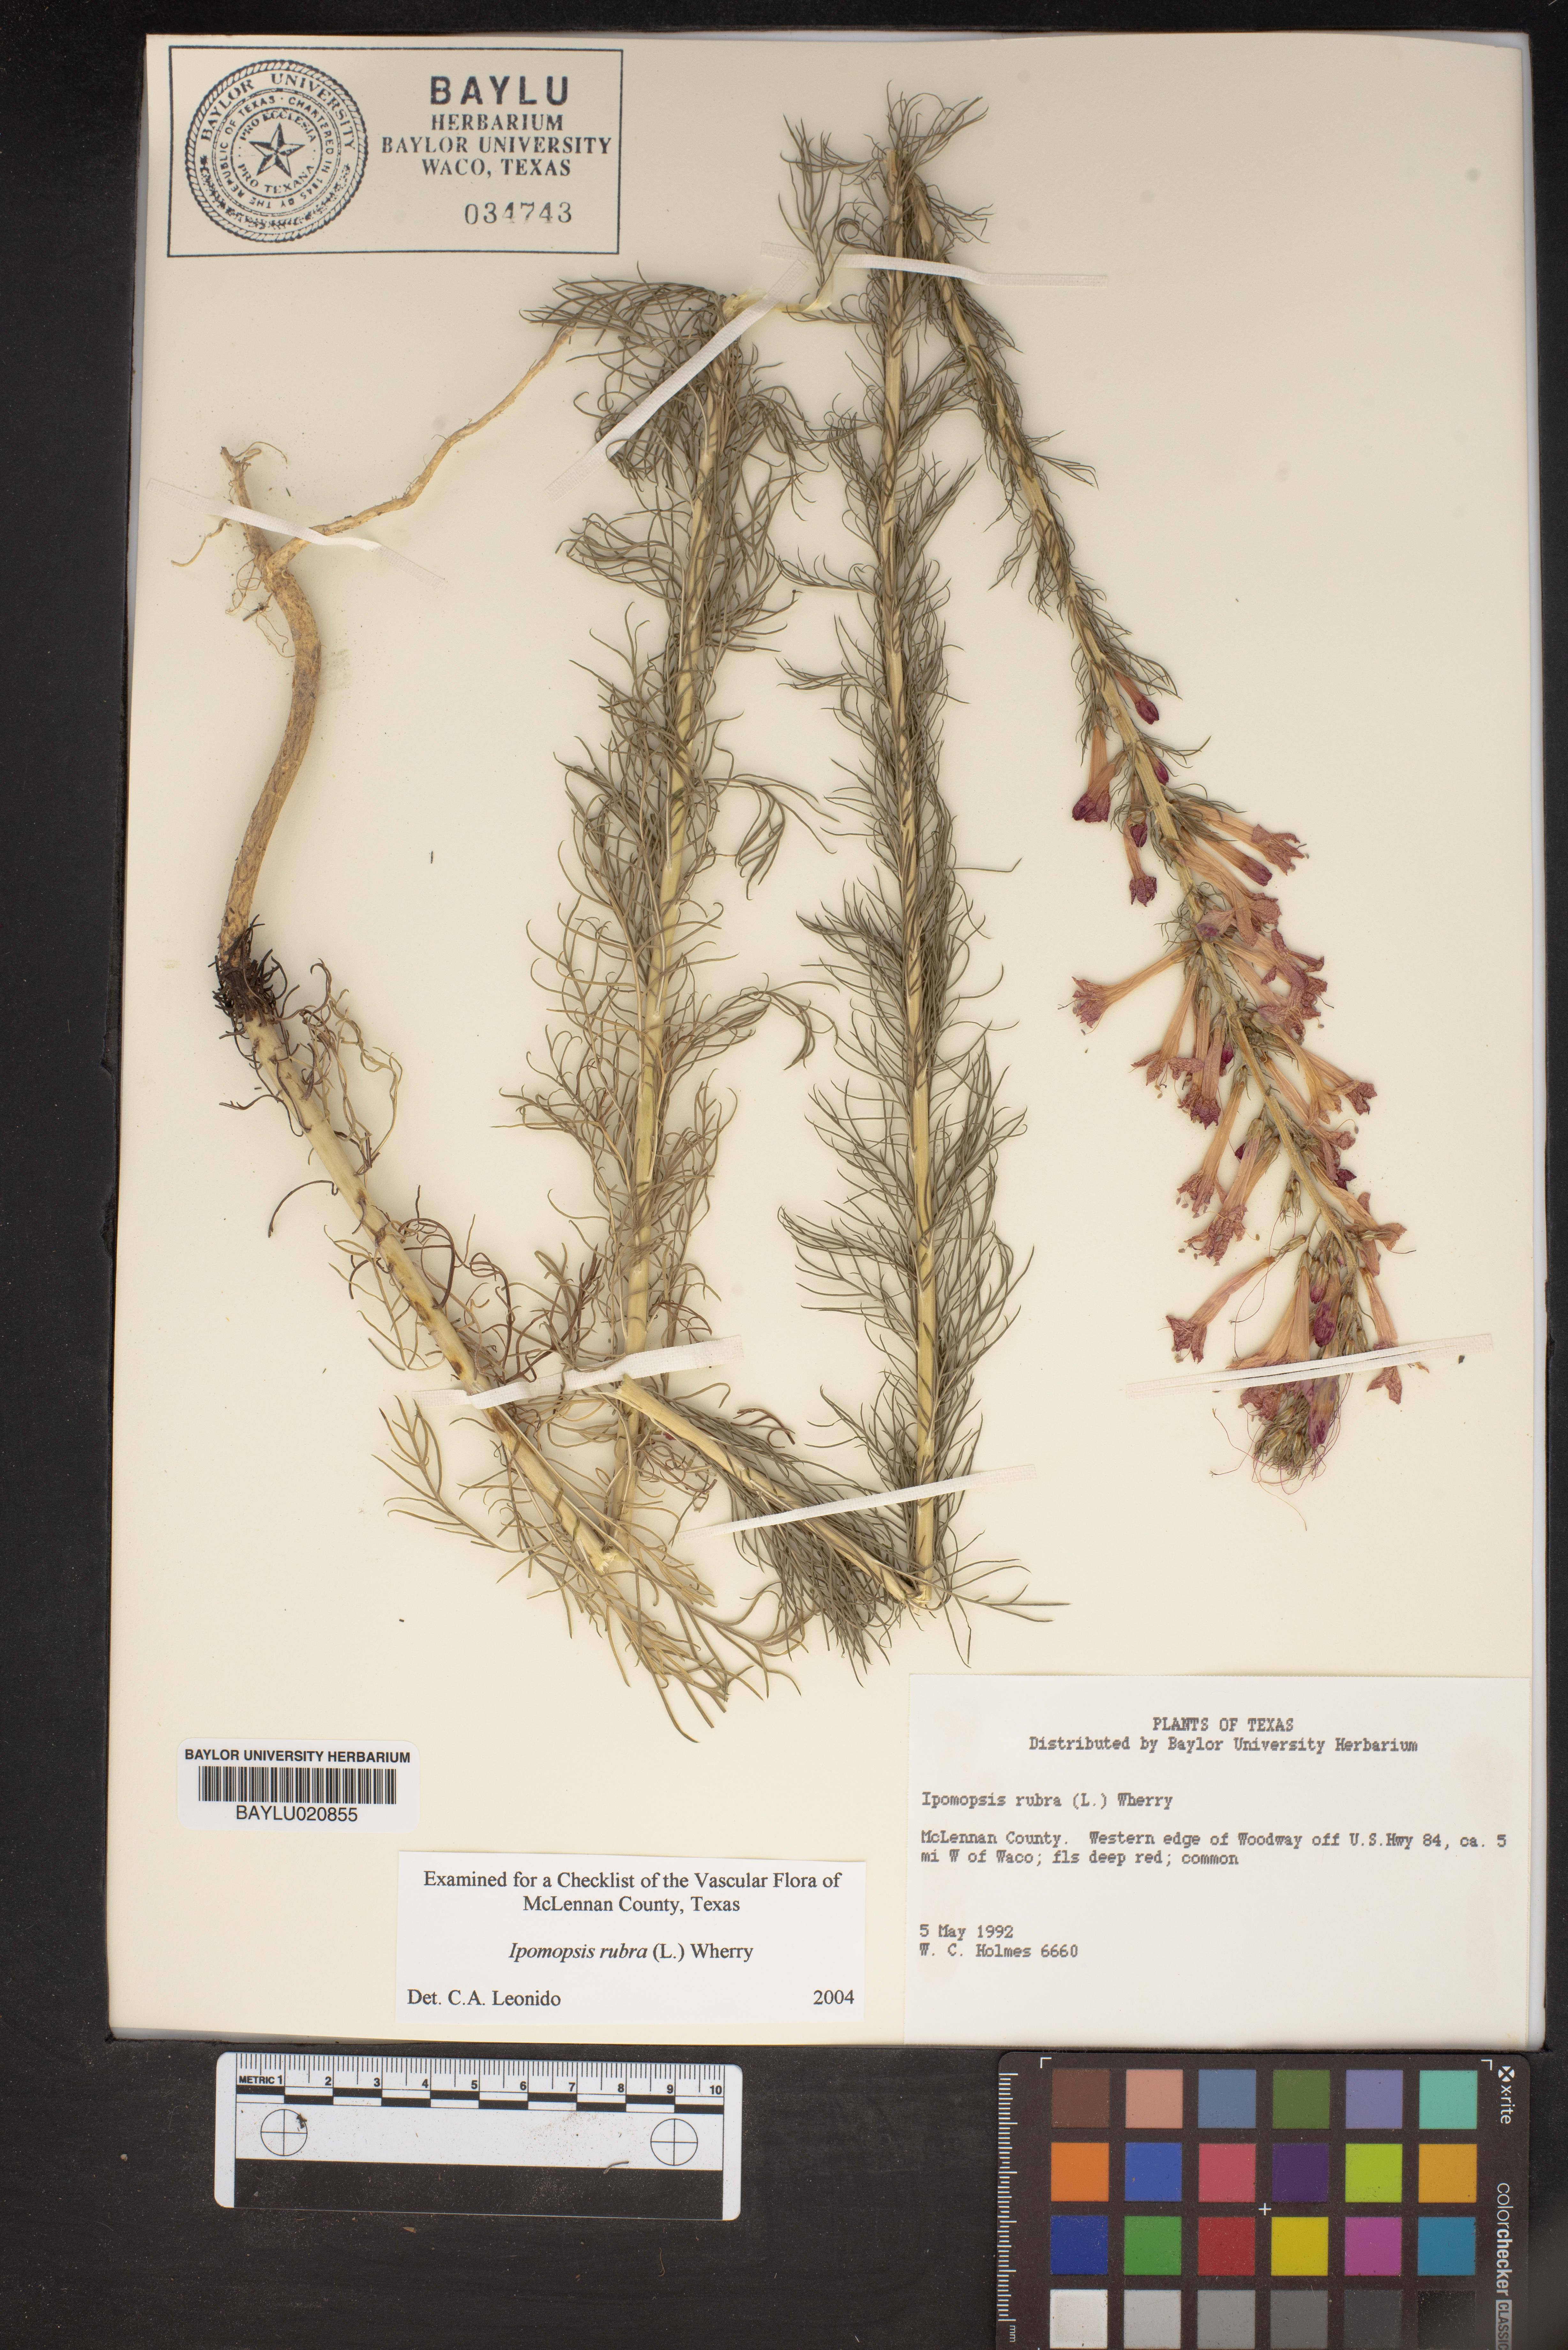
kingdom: Plantae
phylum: Tracheophyta
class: Magnoliopsida
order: Ericales
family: Polemoniaceae
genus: Ipomopsis
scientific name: Ipomopsis rubra
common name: Skyrocket
